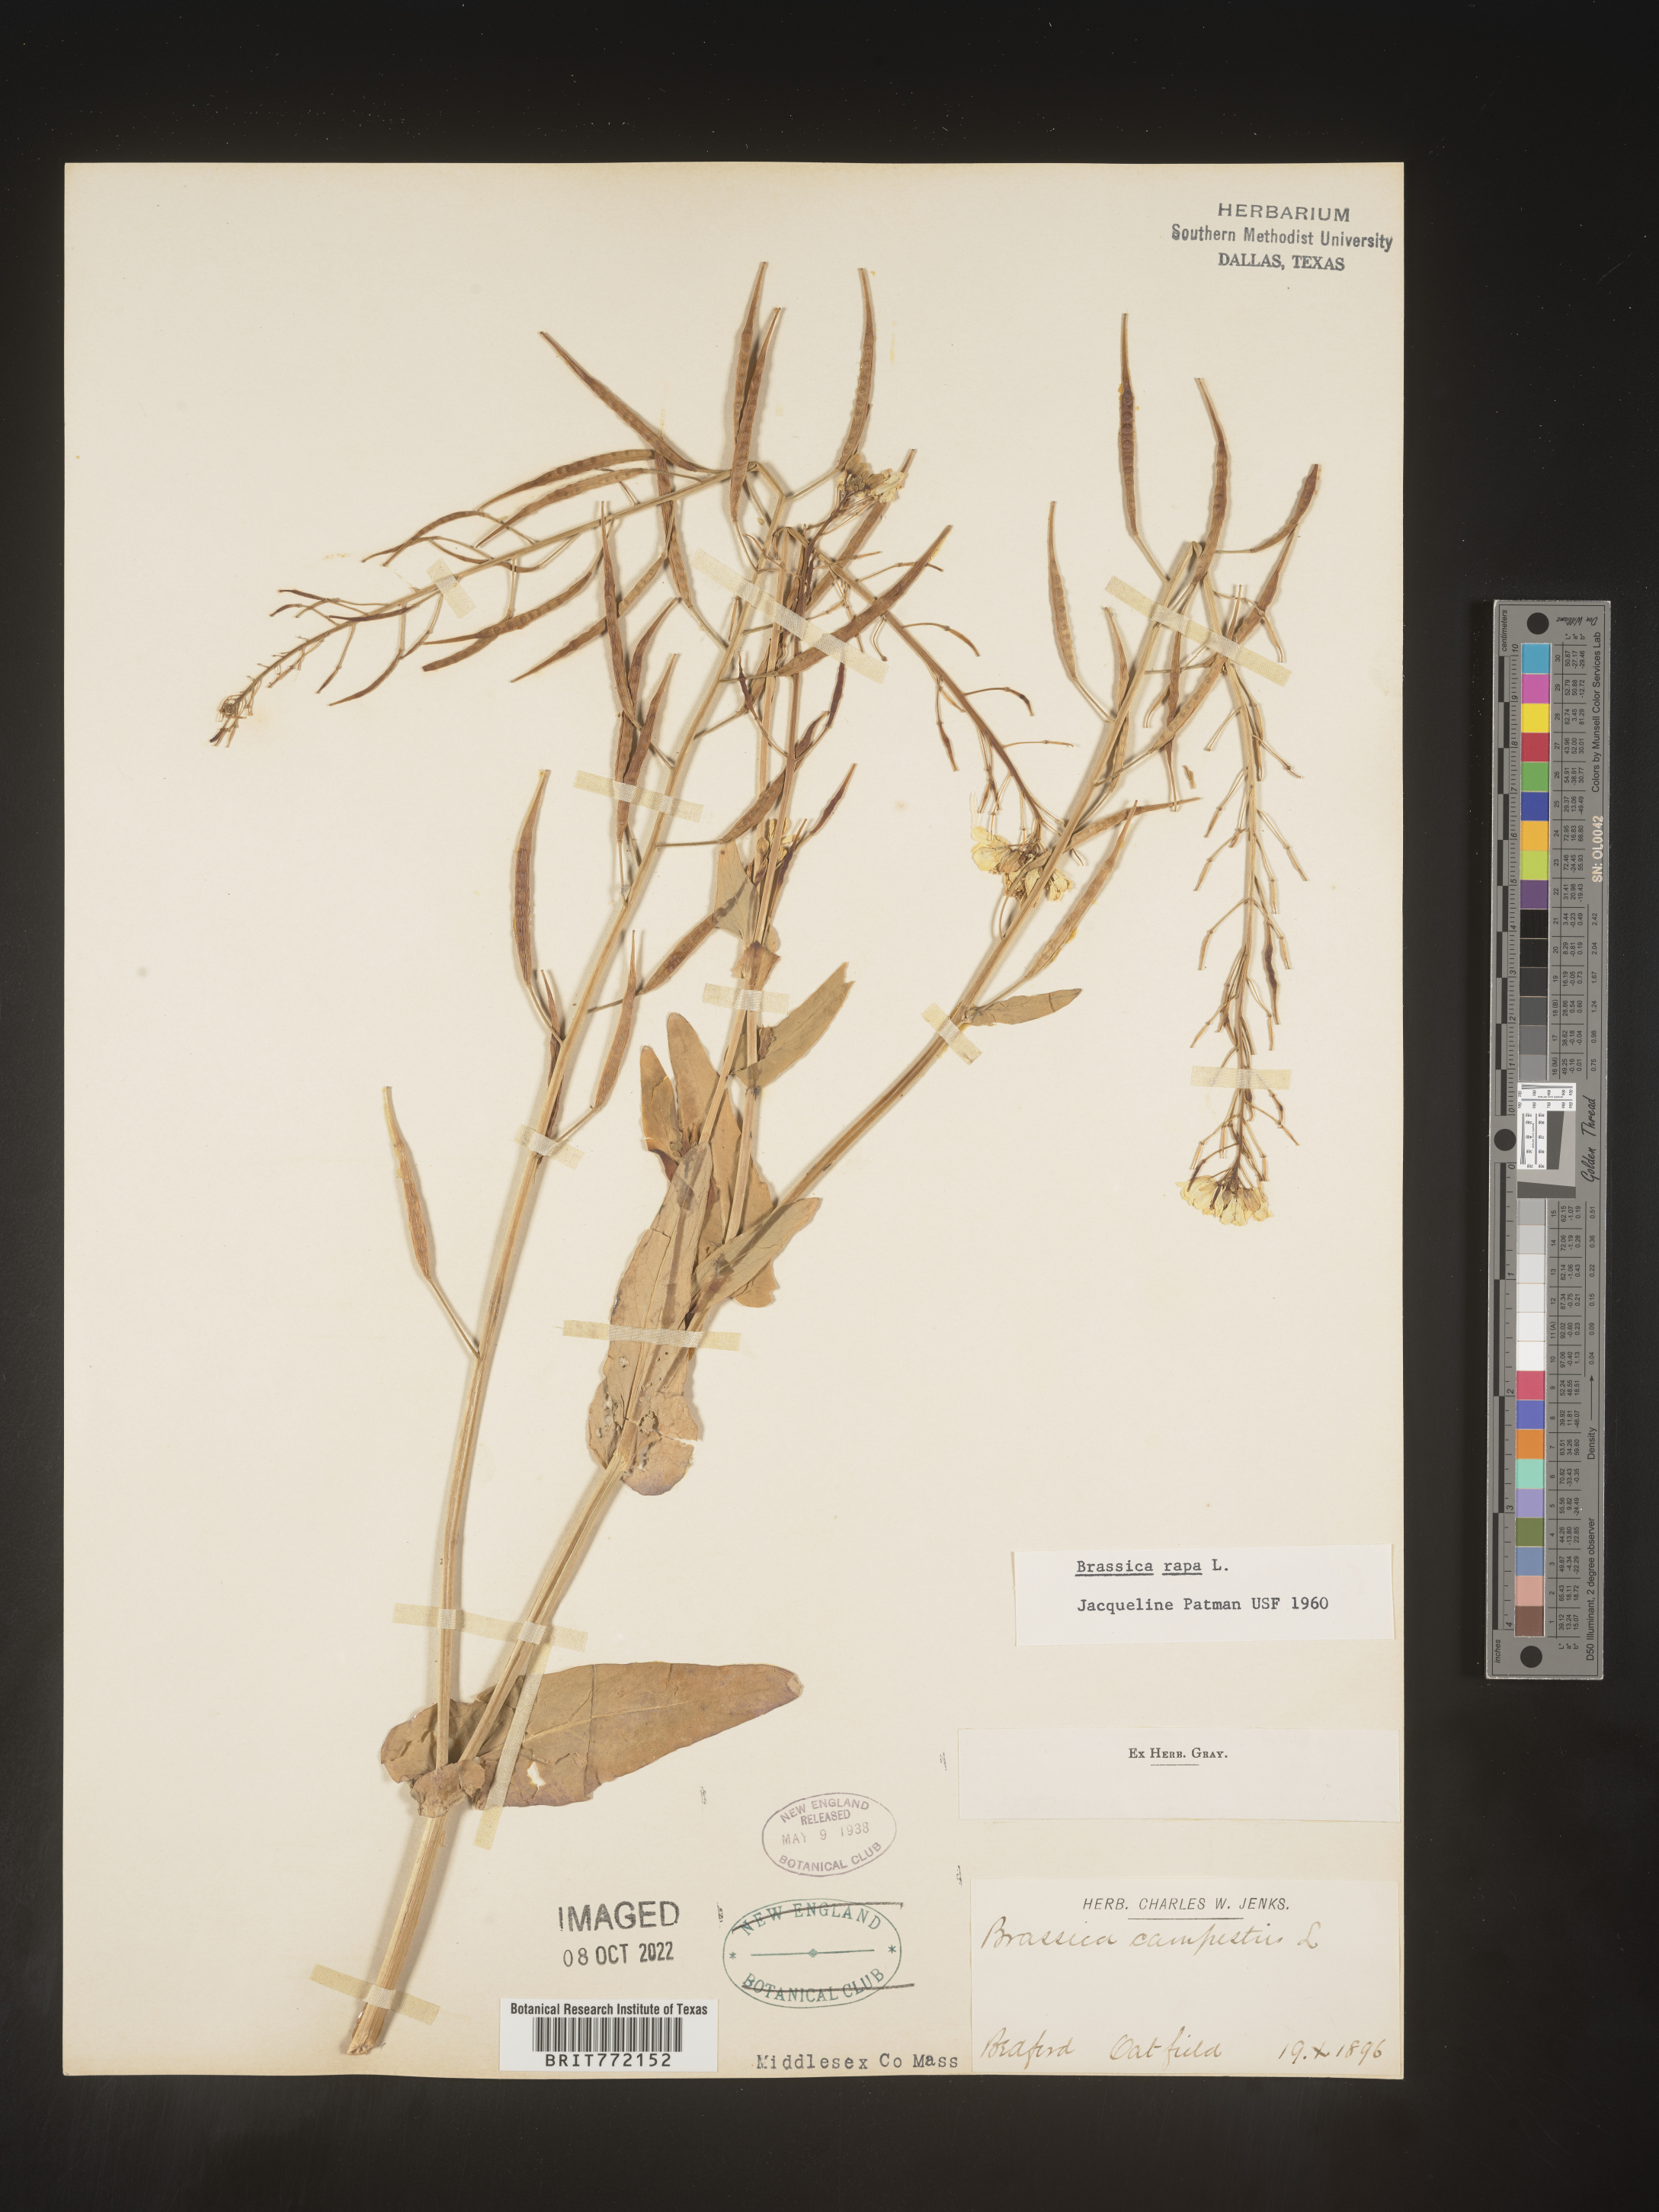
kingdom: Plantae
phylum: Tracheophyta
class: Magnoliopsida
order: Brassicales
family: Brassicaceae
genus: Brassica
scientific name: Brassica rapa
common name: Field mustard
